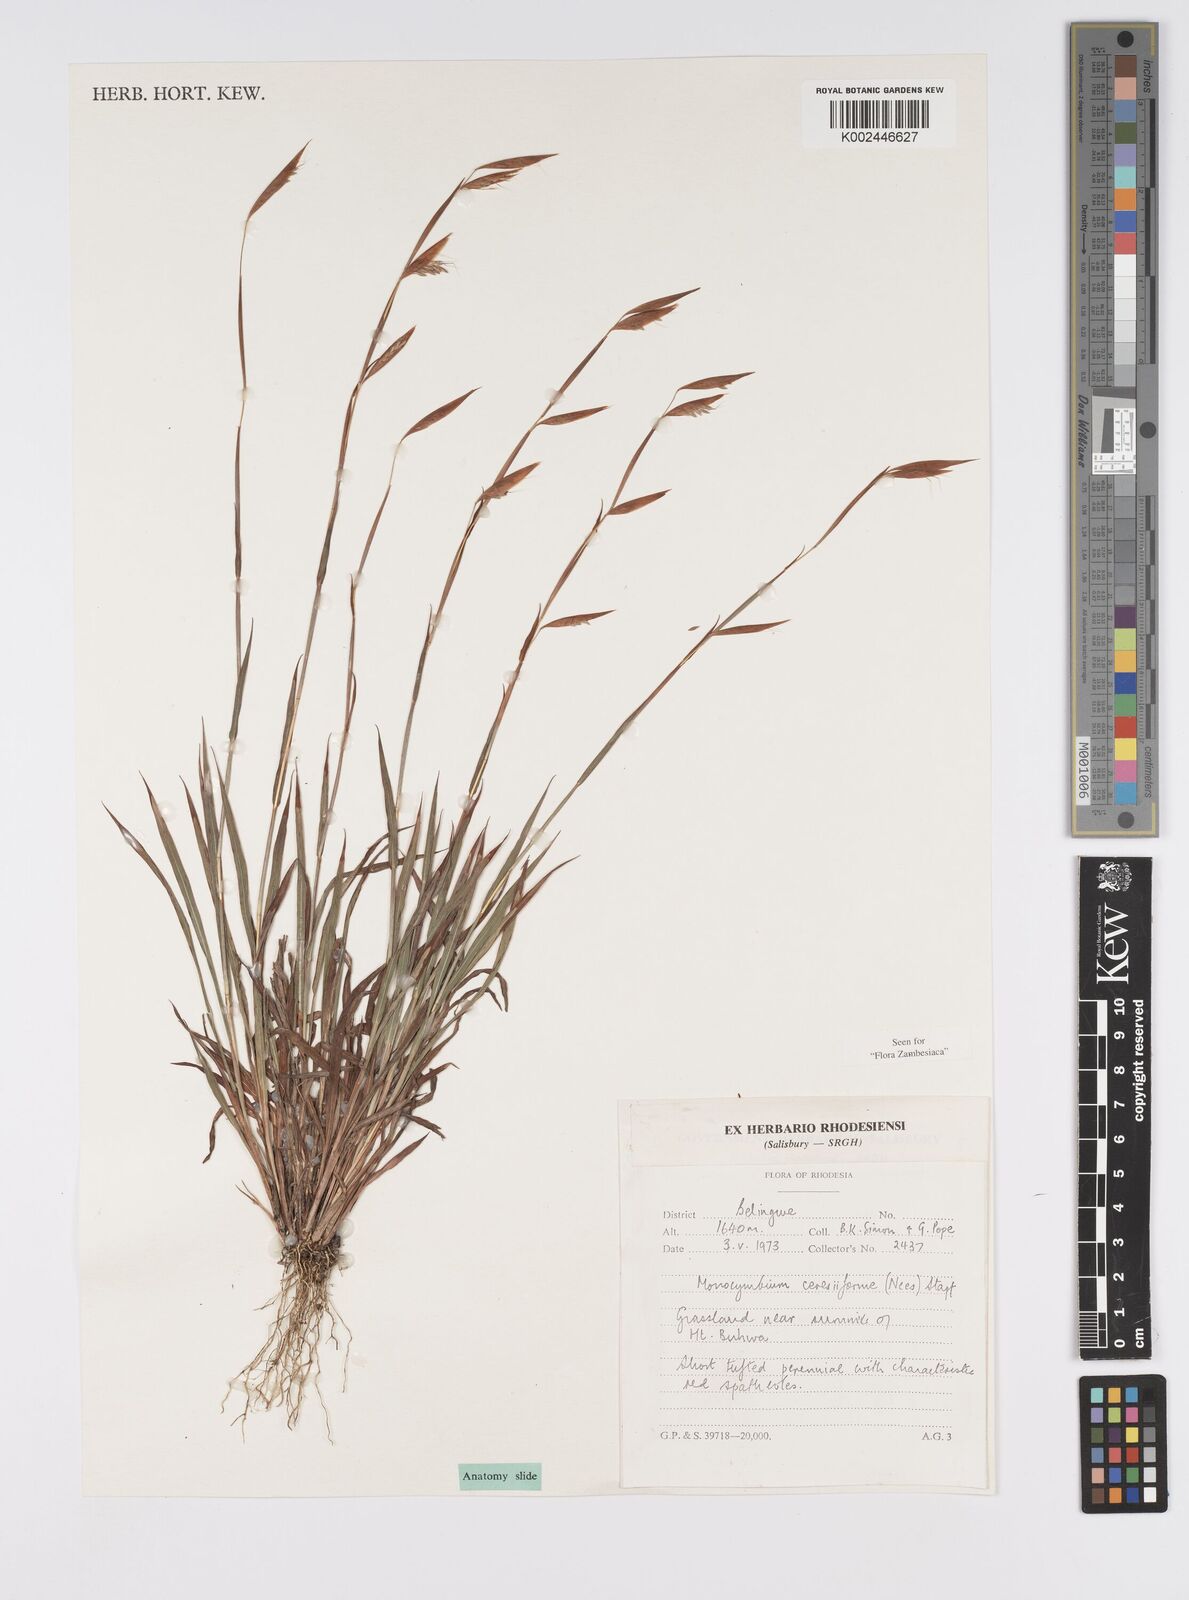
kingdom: Plantae
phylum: Tracheophyta
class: Liliopsida
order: Poales
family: Poaceae
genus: Monocymbium
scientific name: Monocymbium ceresiiforme
